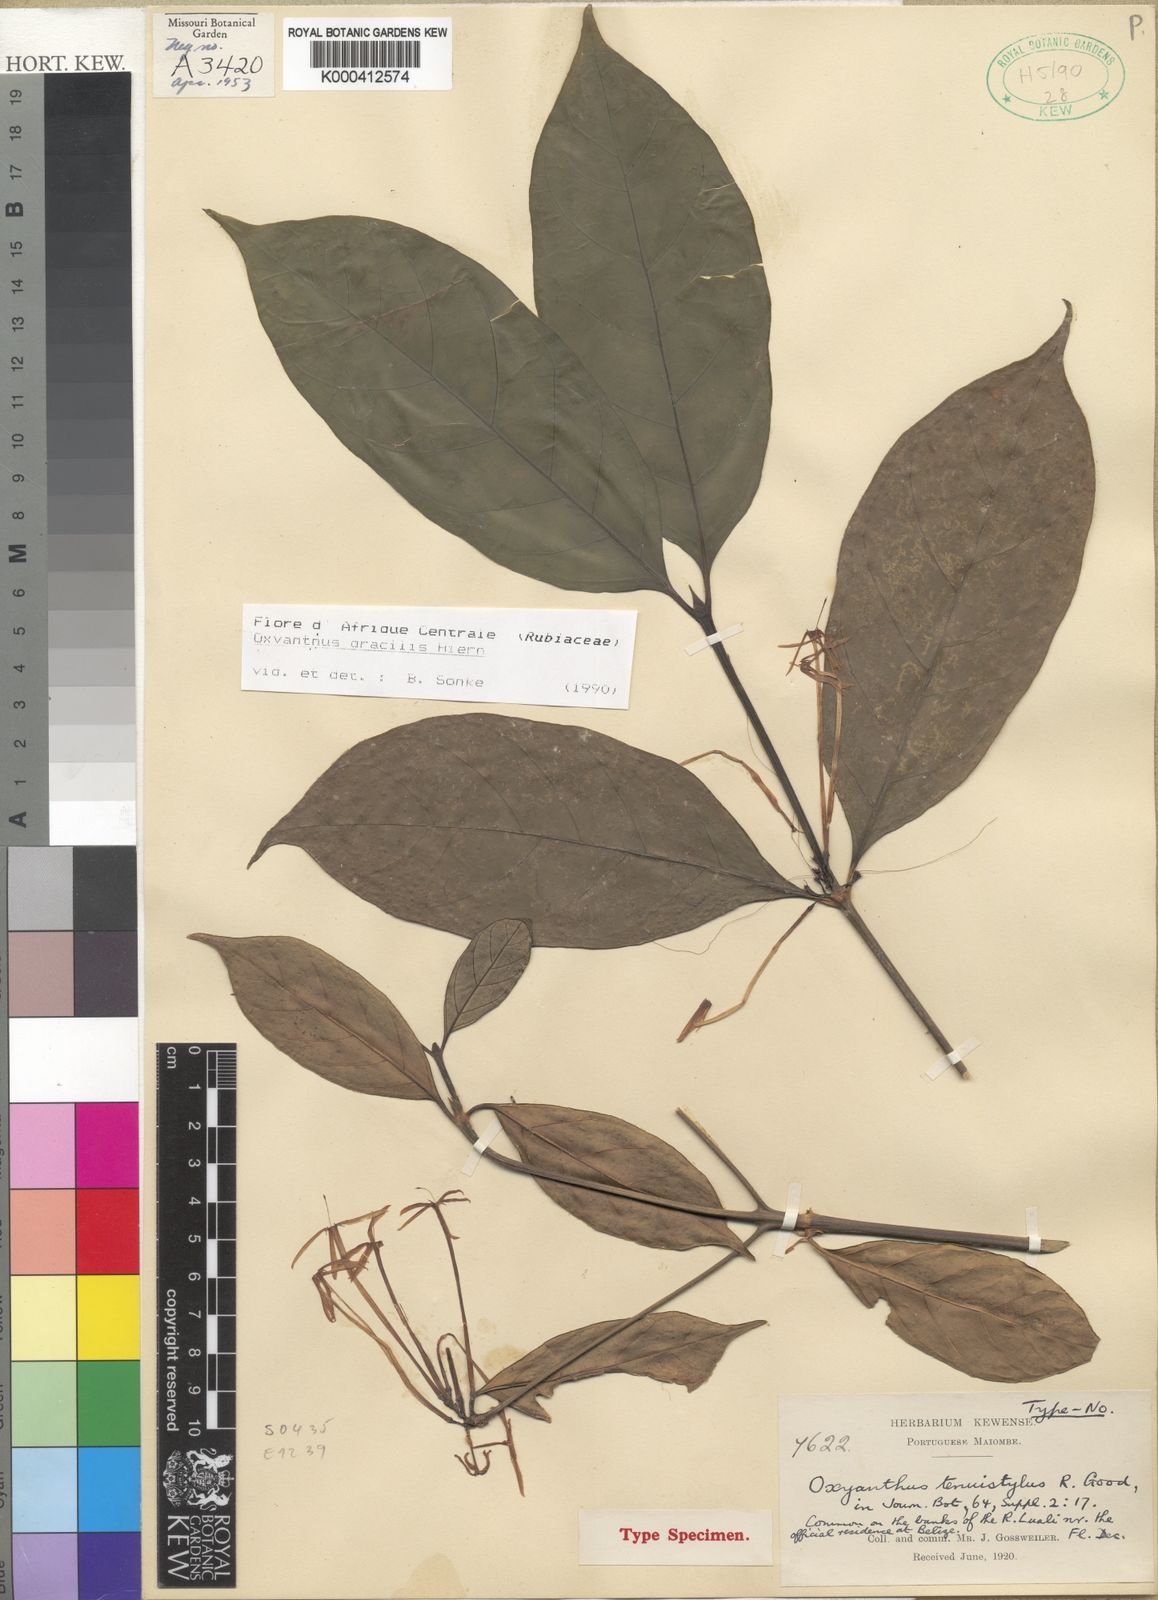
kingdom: Plantae
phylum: Tracheophyta
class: Magnoliopsida
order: Gentianales
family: Rubiaceae
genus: Oxyanthus
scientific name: Oxyanthus gracilis
